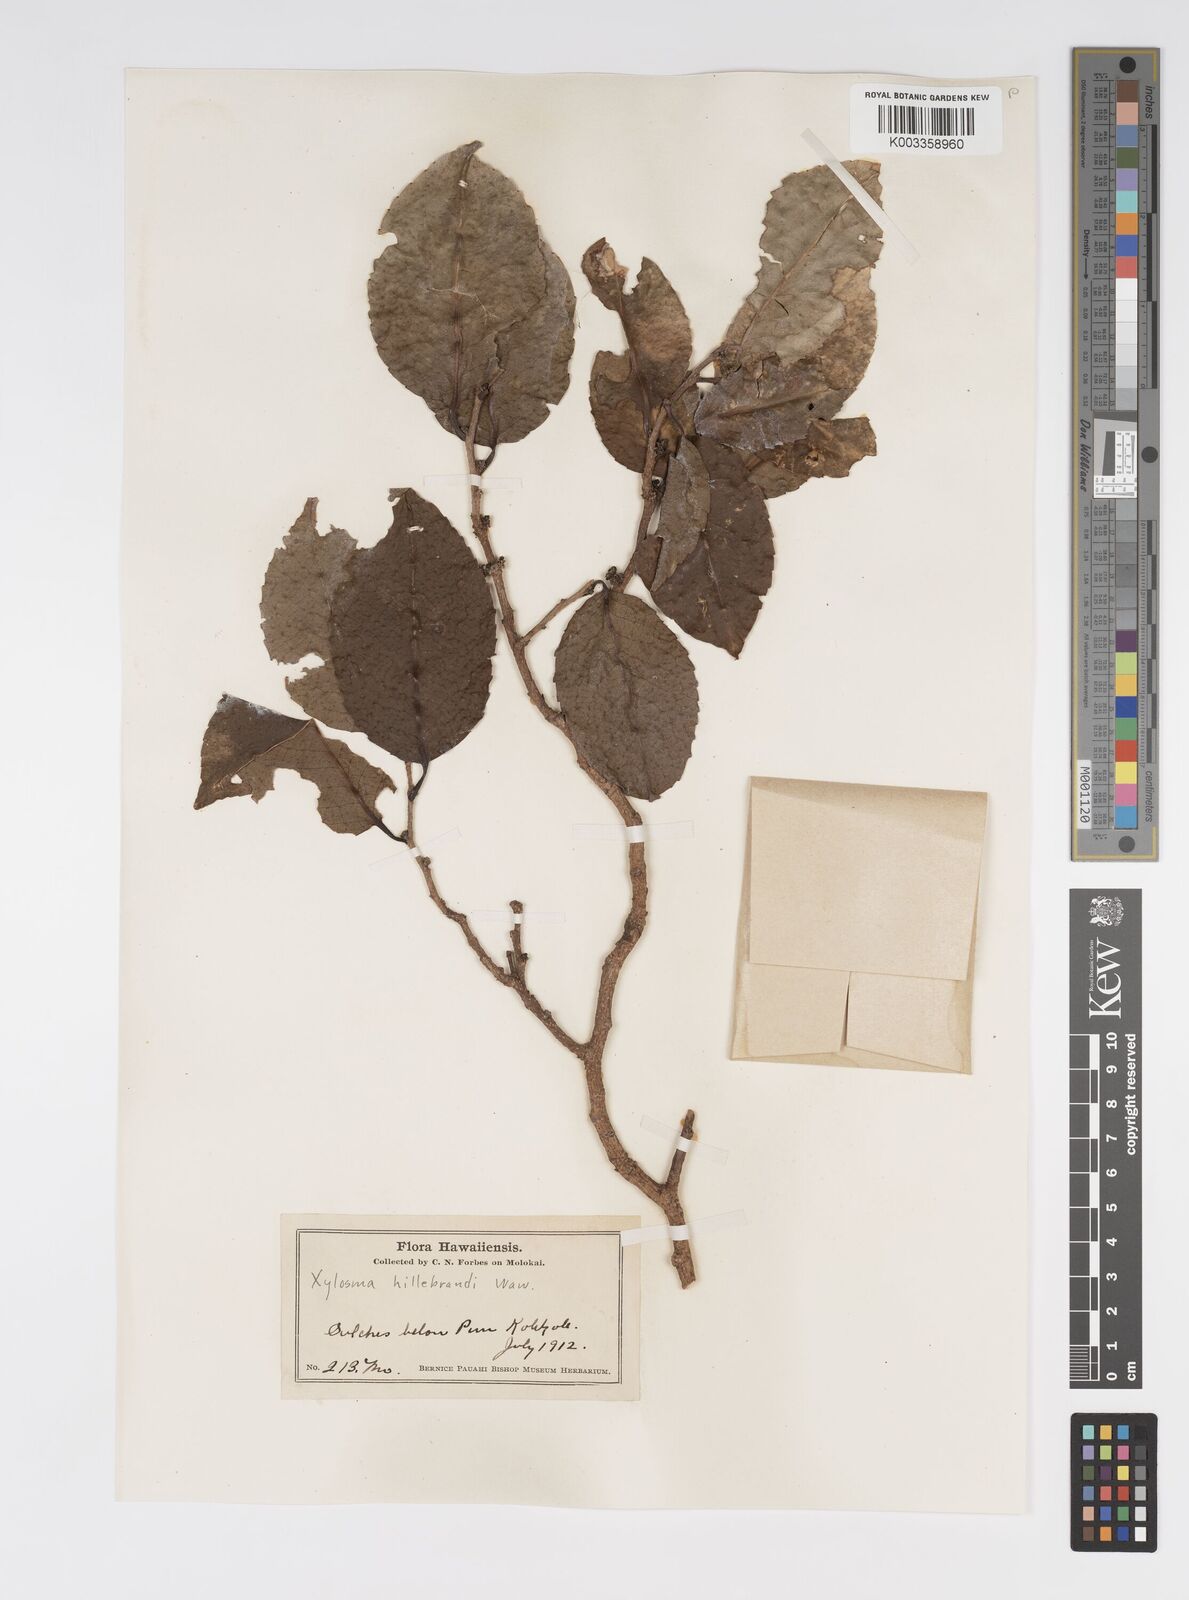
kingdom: Plantae
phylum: Tracheophyta
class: Magnoliopsida
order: Malpighiales
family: Salicaceae
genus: Xylosma
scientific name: Xylosma hawaiense
